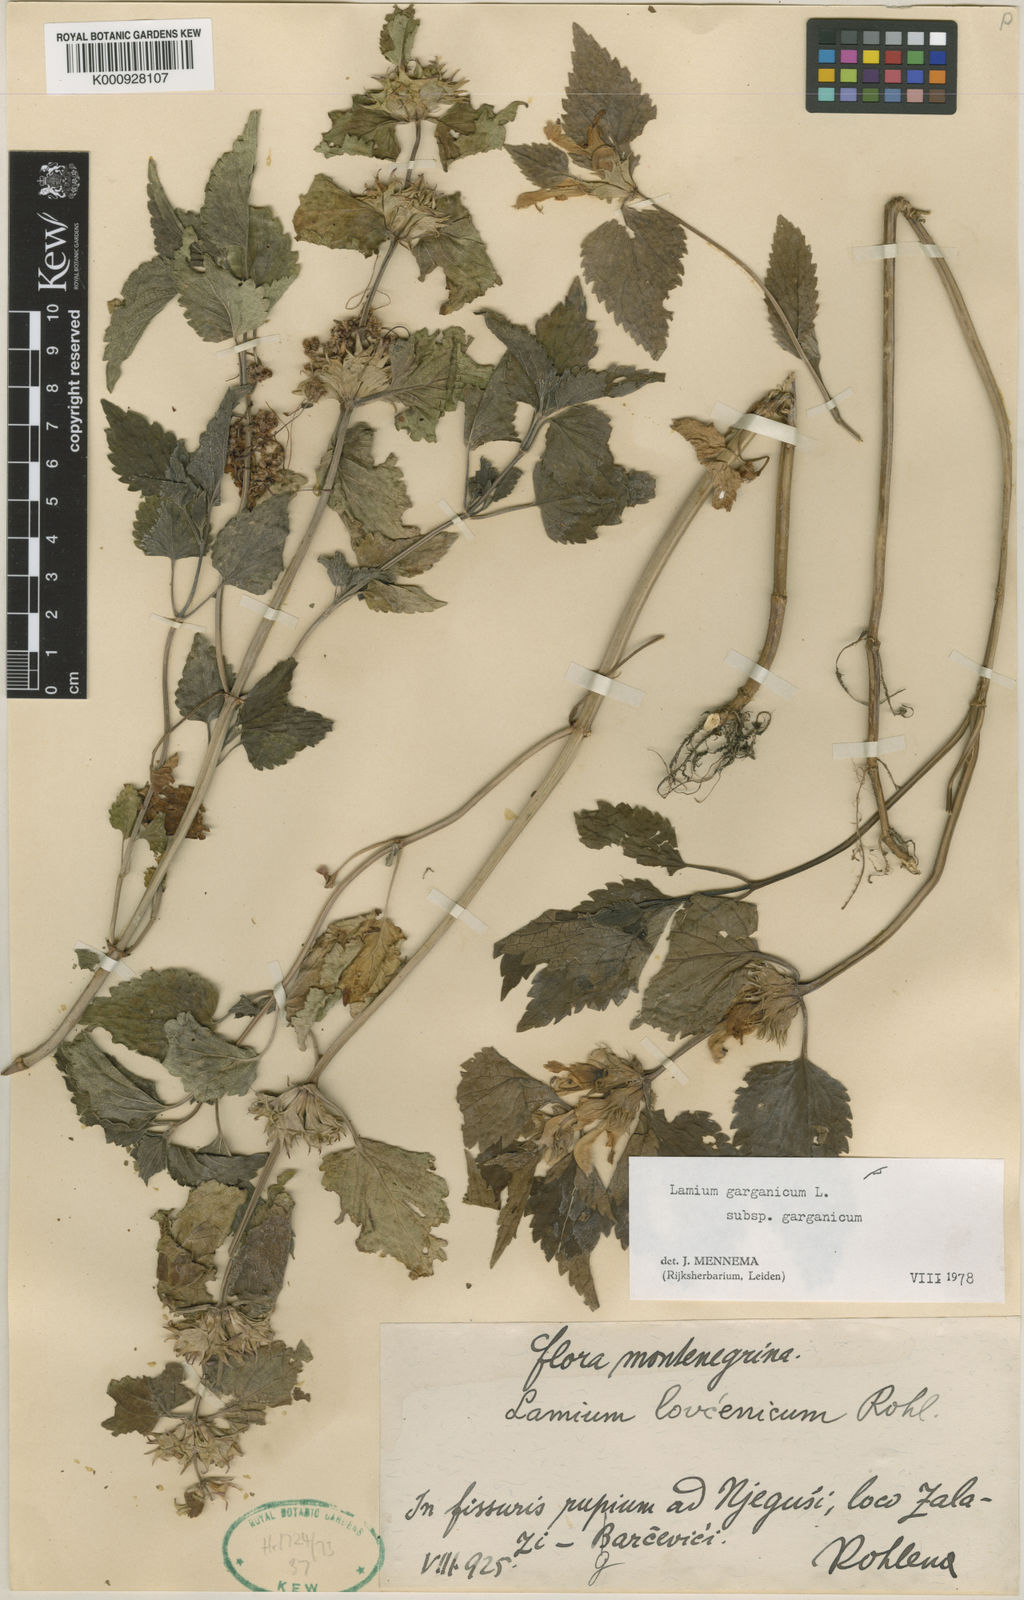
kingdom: Plantae
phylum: Tracheophyta
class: Magnoliopsida
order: Lamiales
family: Lamiaceae
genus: Lamium
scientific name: Lamium garganicum
